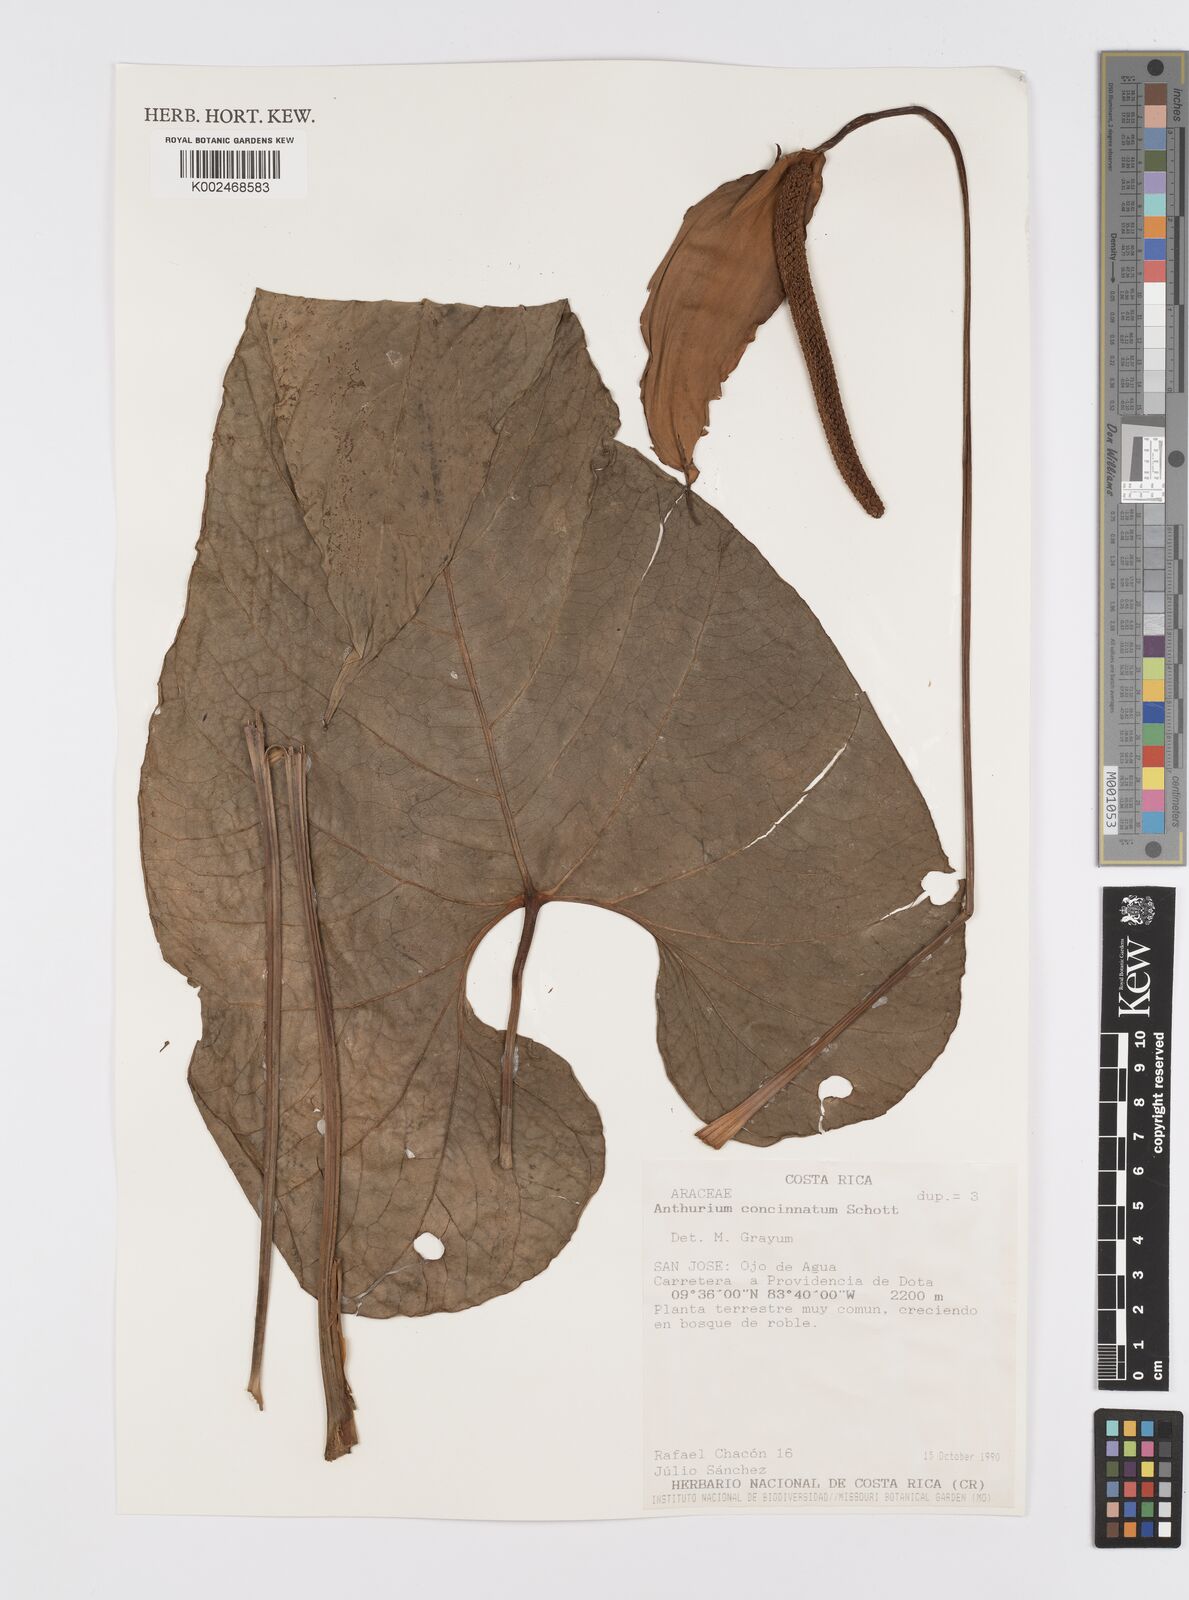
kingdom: Plantae
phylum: Tracheophyta
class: Liliopsida
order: Alismatales
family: Araceae
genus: Anthurium
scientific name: Anthurium concinnatum
